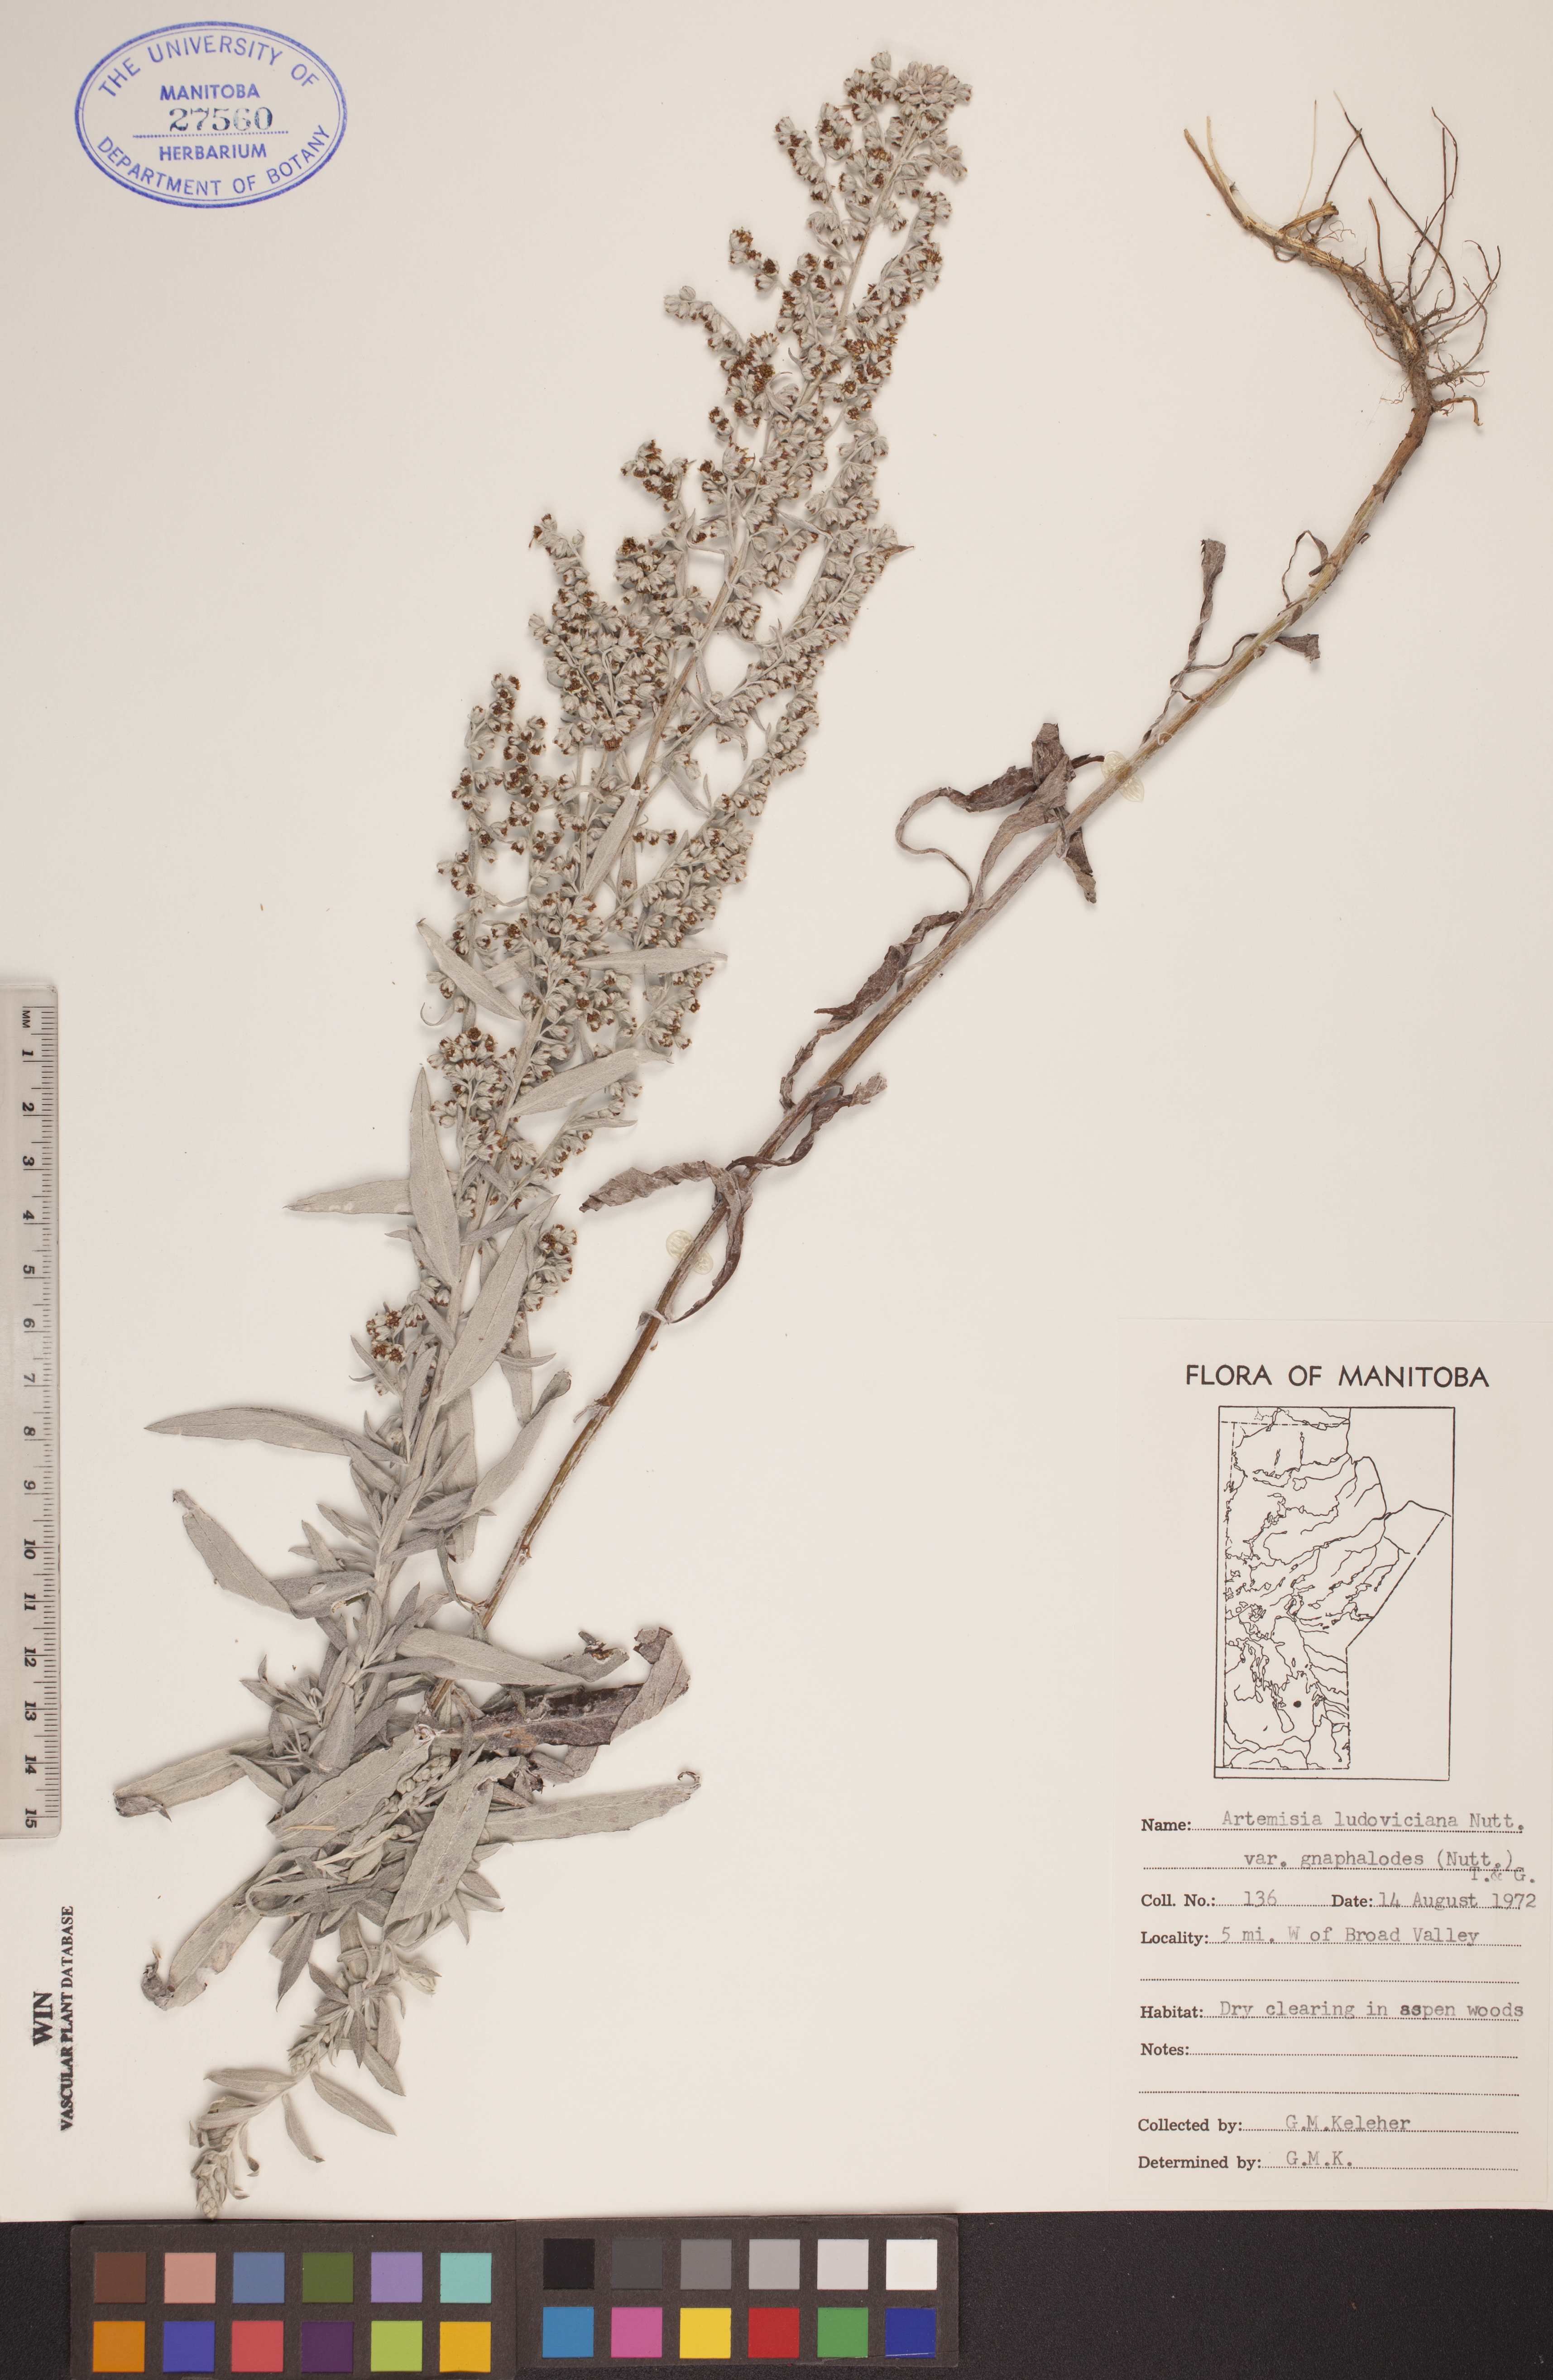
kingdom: Plantae
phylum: Tracheophyta
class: Magnoliopsida
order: Asterales
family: Asteraceae
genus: Artemisia
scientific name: Artemisia ludoviciana
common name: Western mugwort
